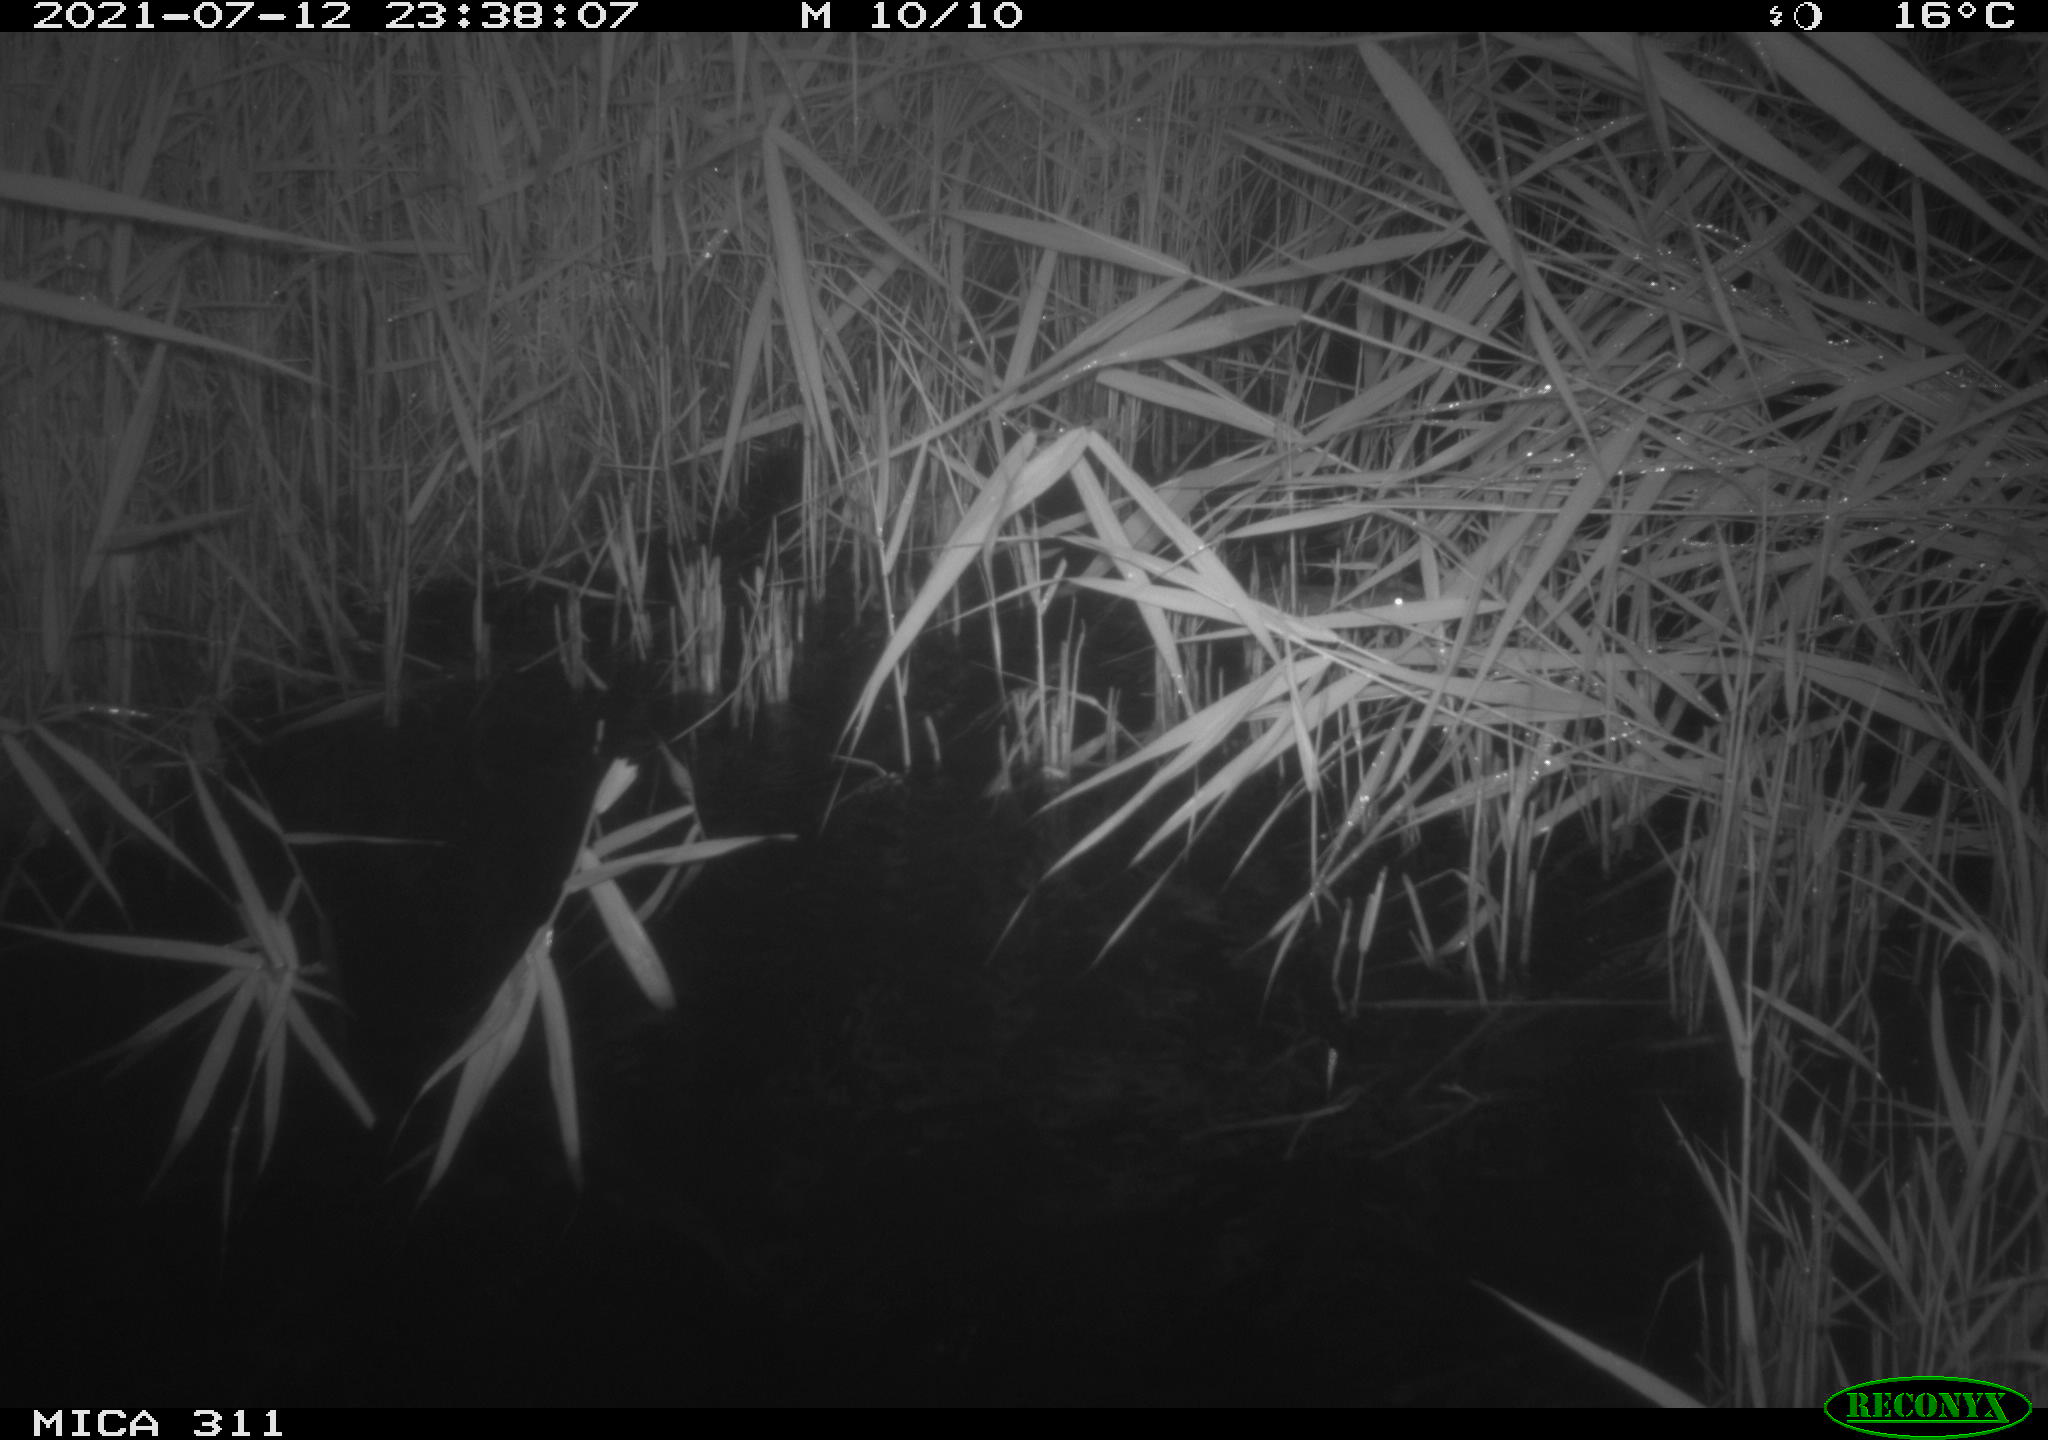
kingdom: Animalia
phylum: Chordata
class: Mammalia
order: Rodentia
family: Muridae
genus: Rattus
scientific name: Rattus norvegicus
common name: Brown rat
